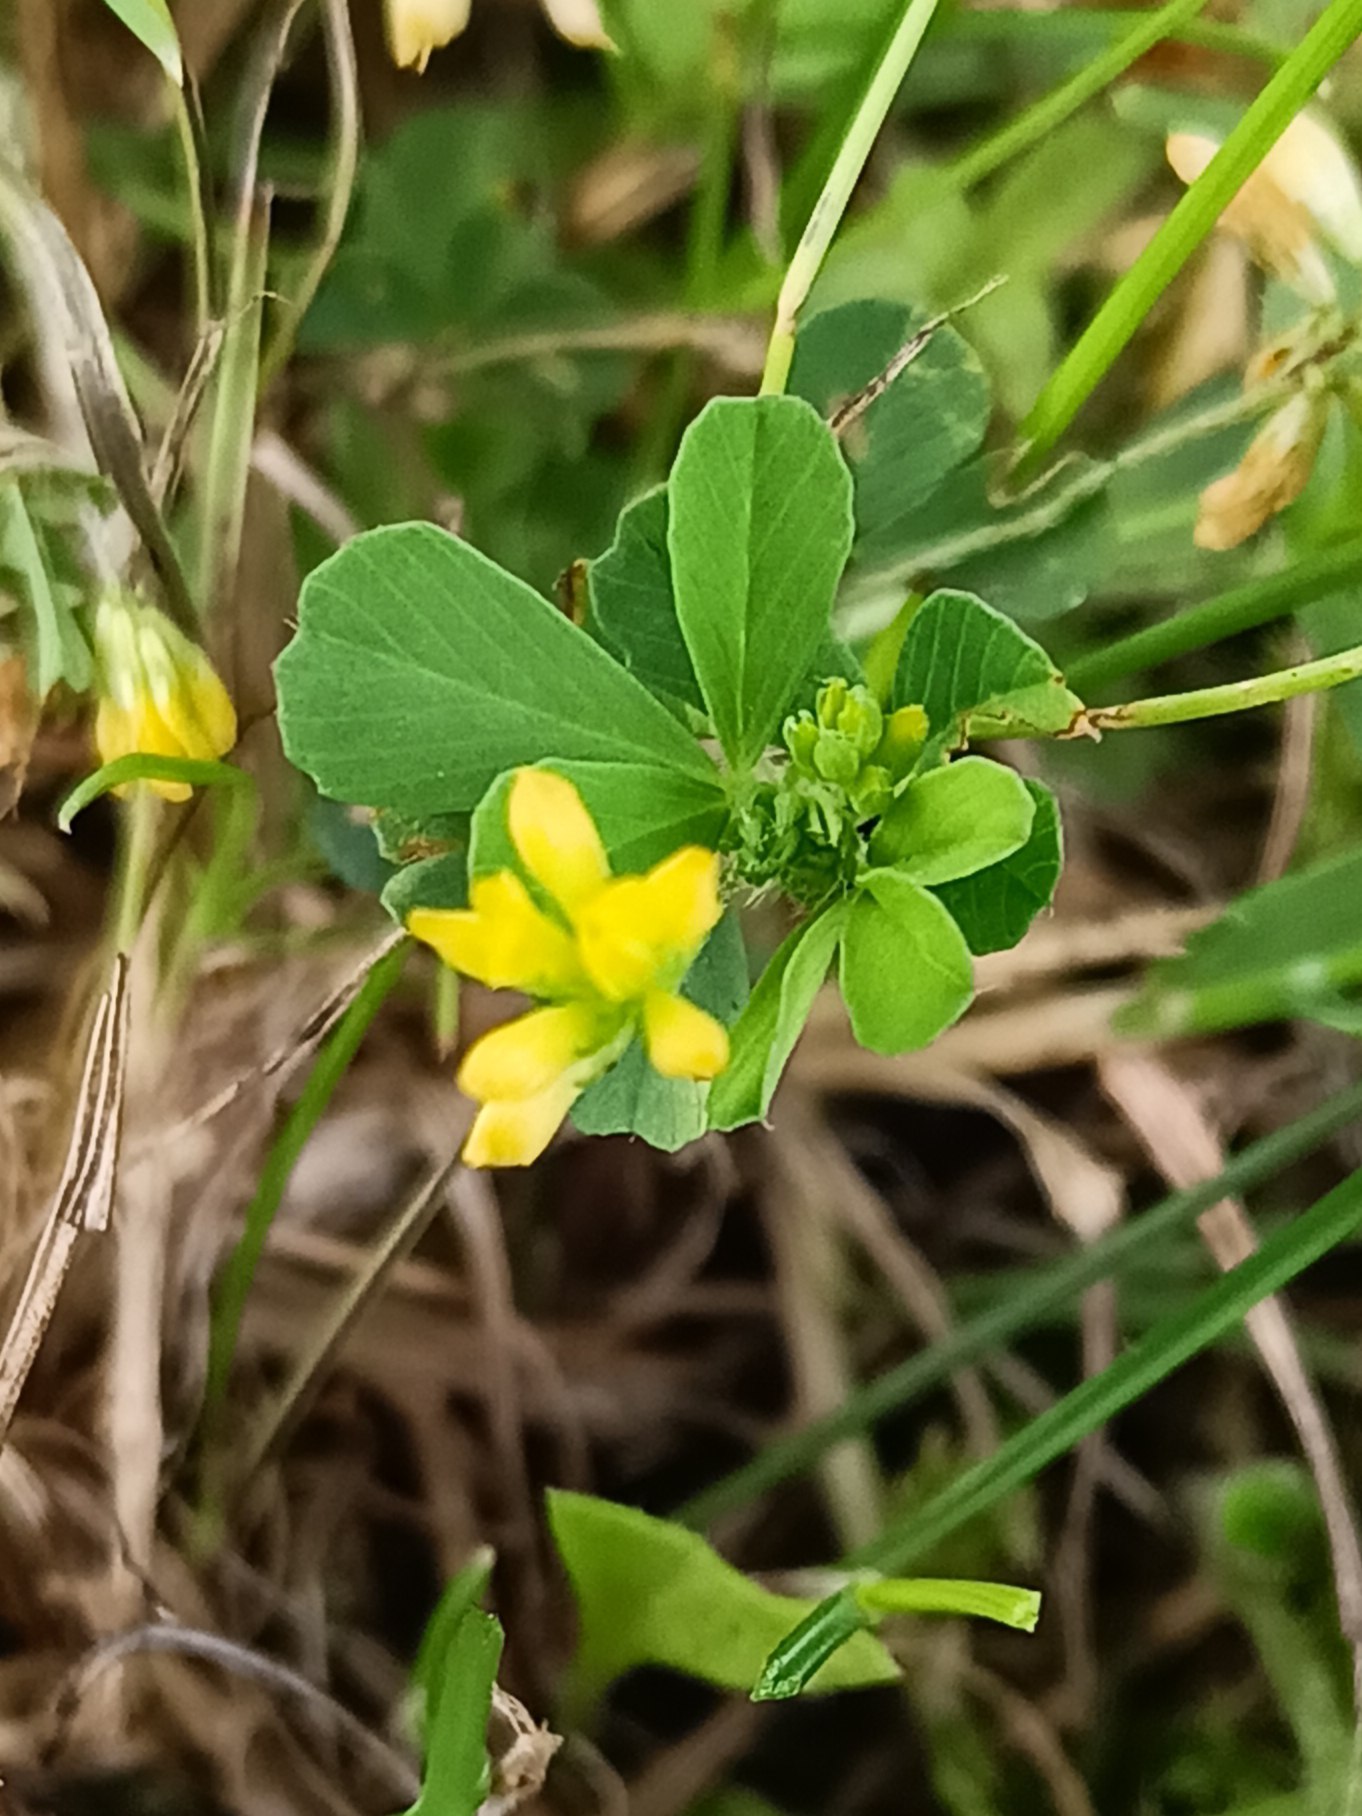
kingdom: Plantae
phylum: Tracheophyta
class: Magnoliopsida
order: Fabales
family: Fabaceae
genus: Medicago
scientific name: Medicago lupulina
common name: Humle-sneglebælg
